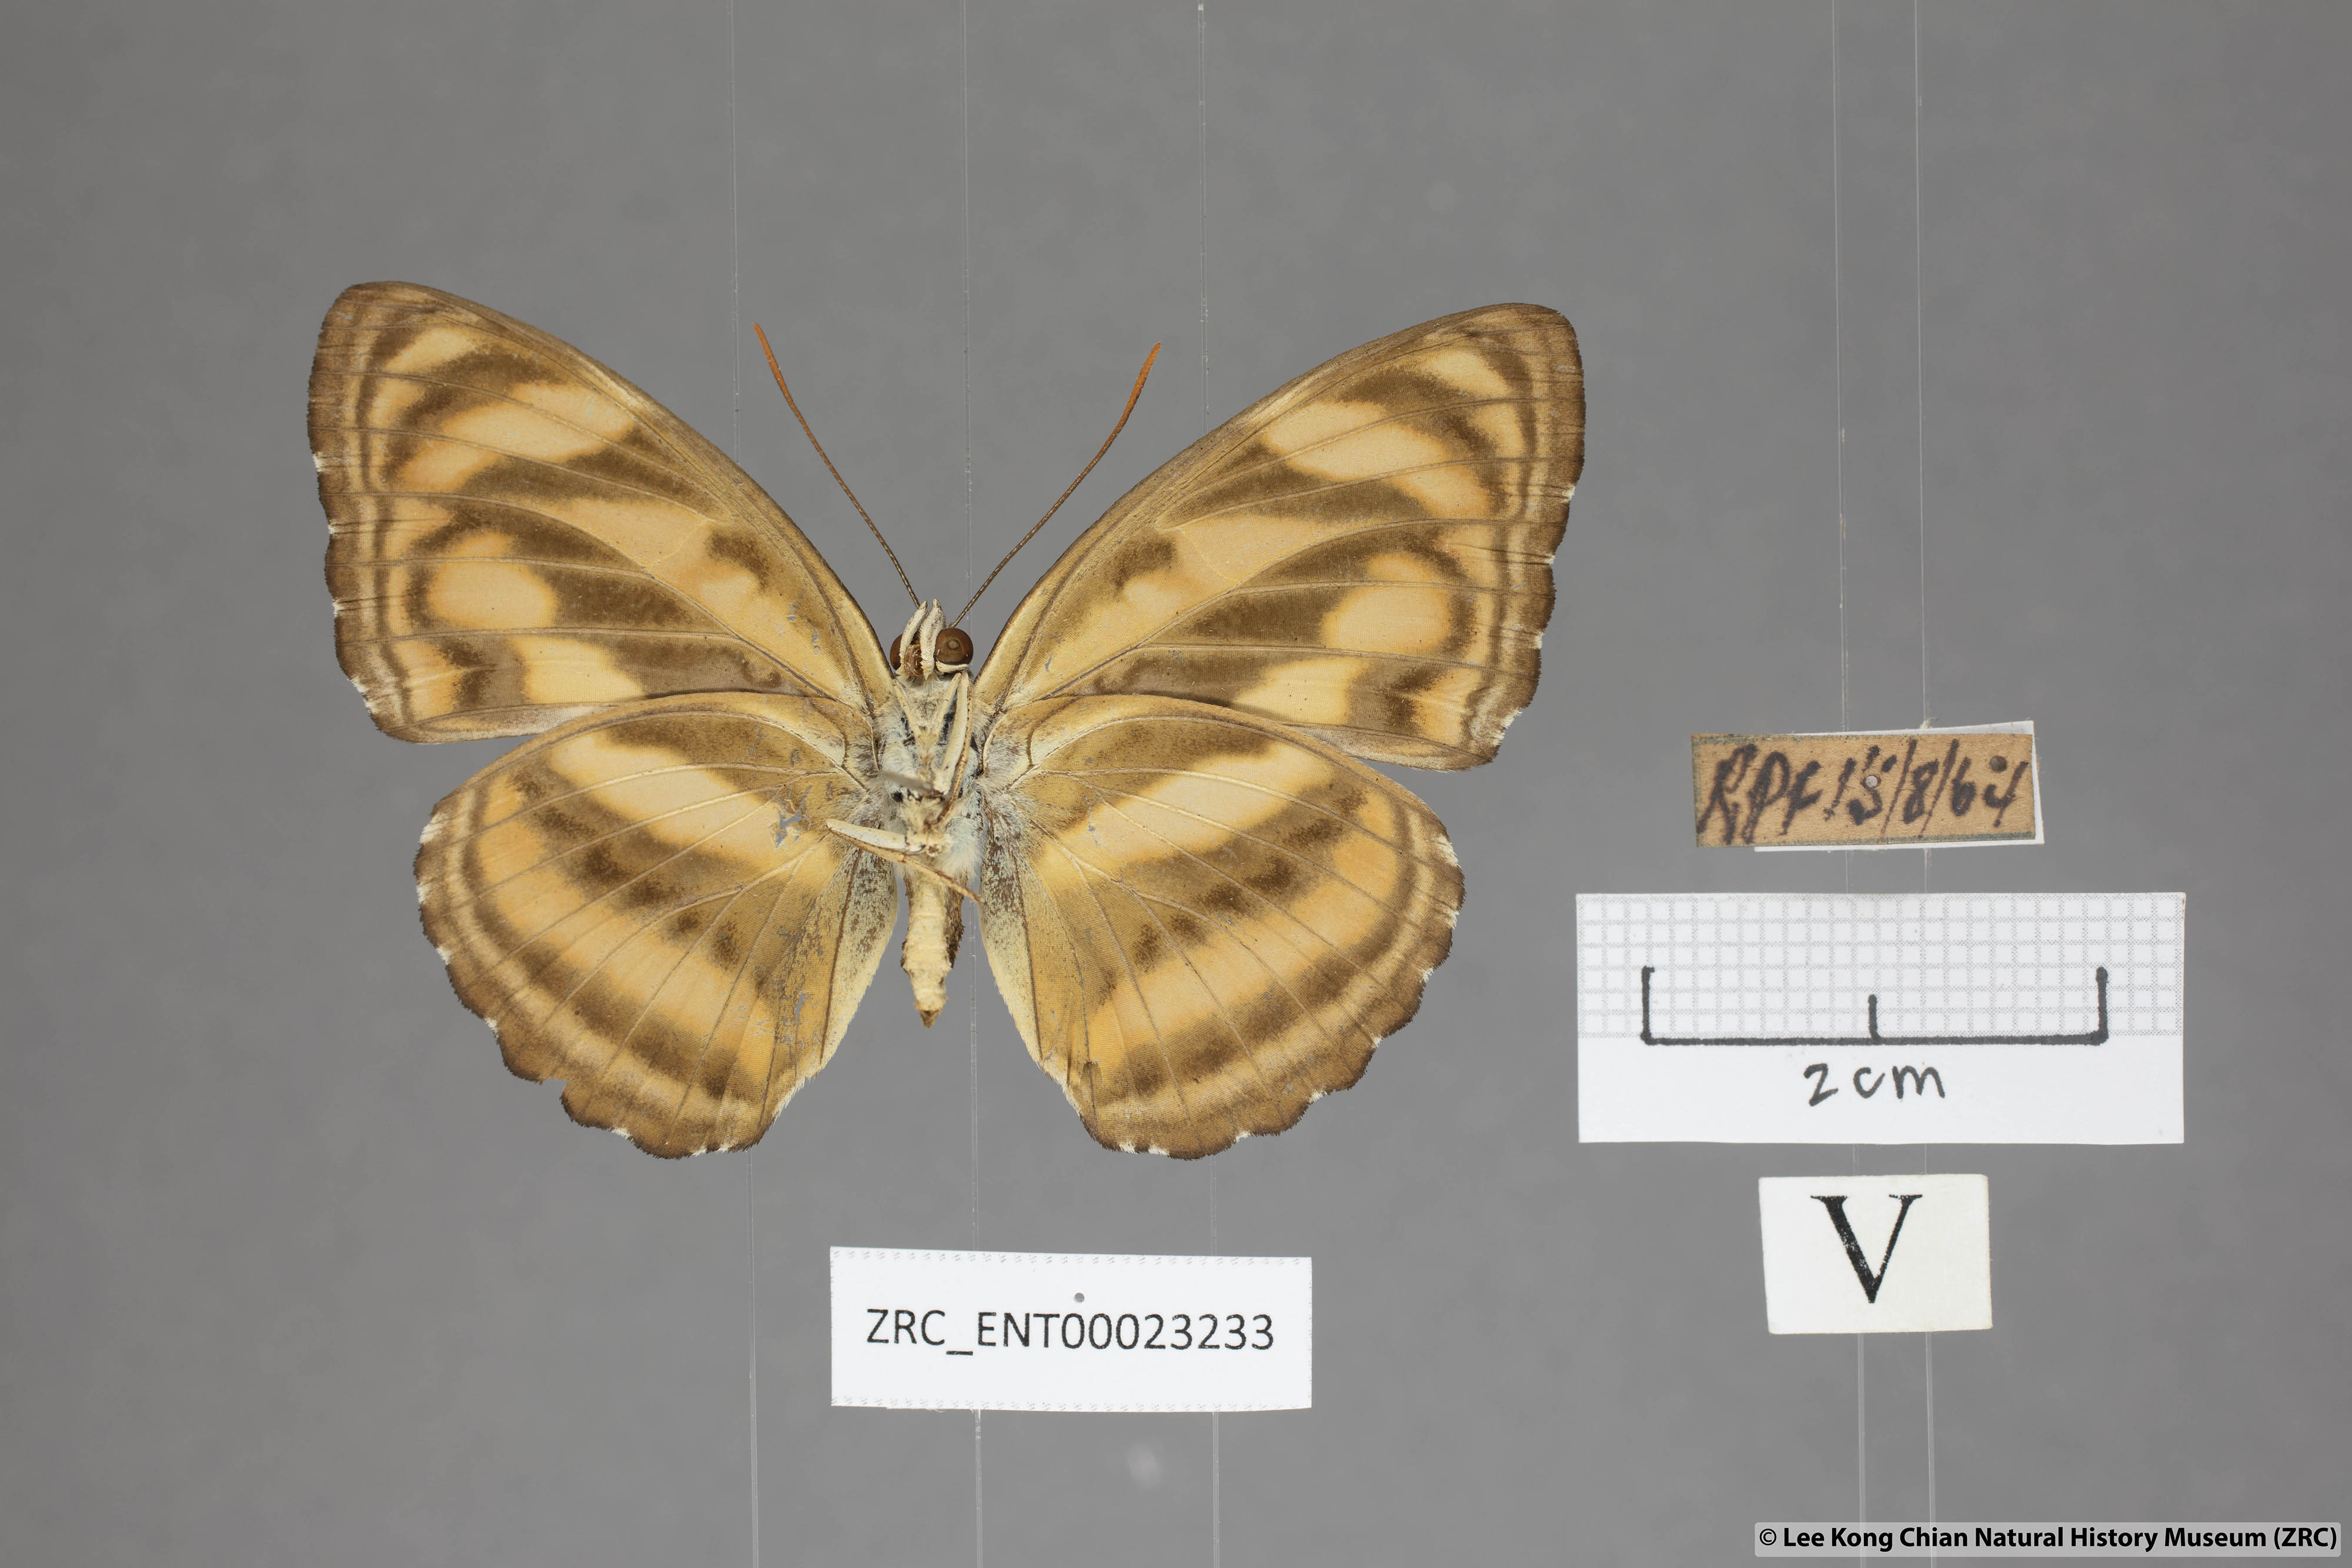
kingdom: Animalia
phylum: Arthropoda
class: Insecta
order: Lepidoptera
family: Nymphalidae
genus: Parathyma
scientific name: Parathyma nefte
